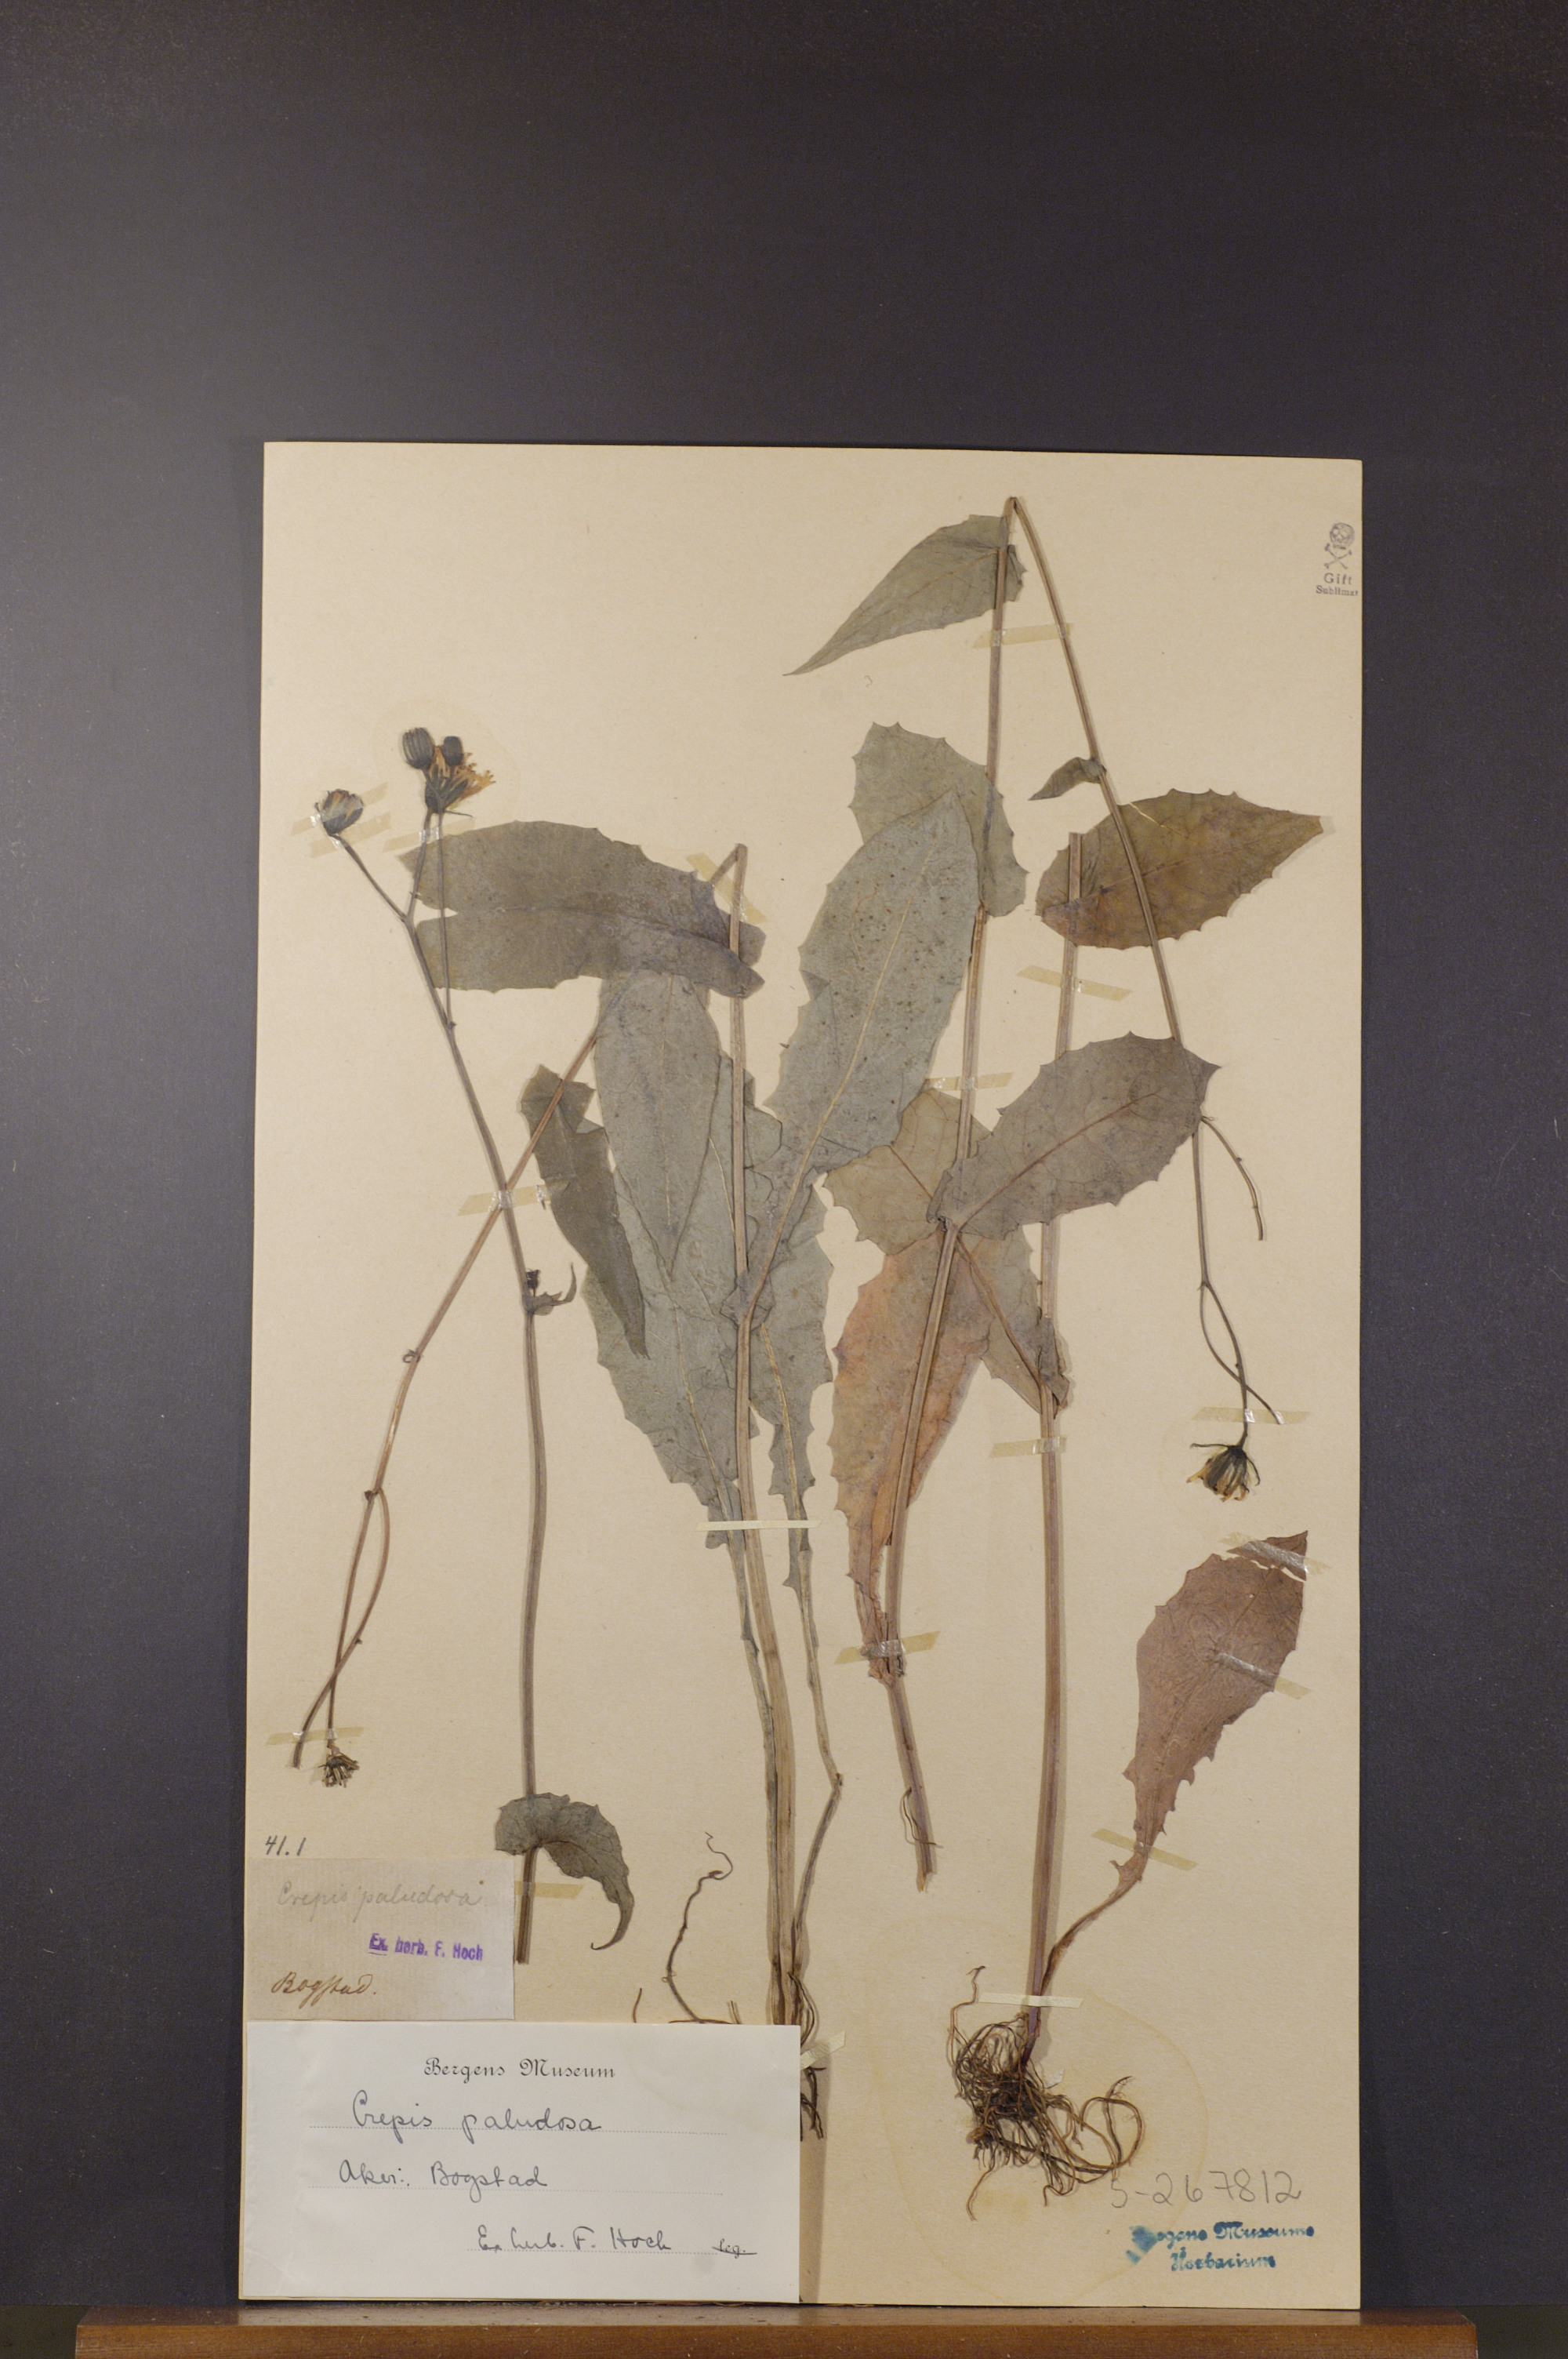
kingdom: Plantae
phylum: Tracheophyta
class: Magnoliopsida
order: Asterales
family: Asteraceae
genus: Crepis
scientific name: Crepis paludosa
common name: Marsh hawk's-beard
